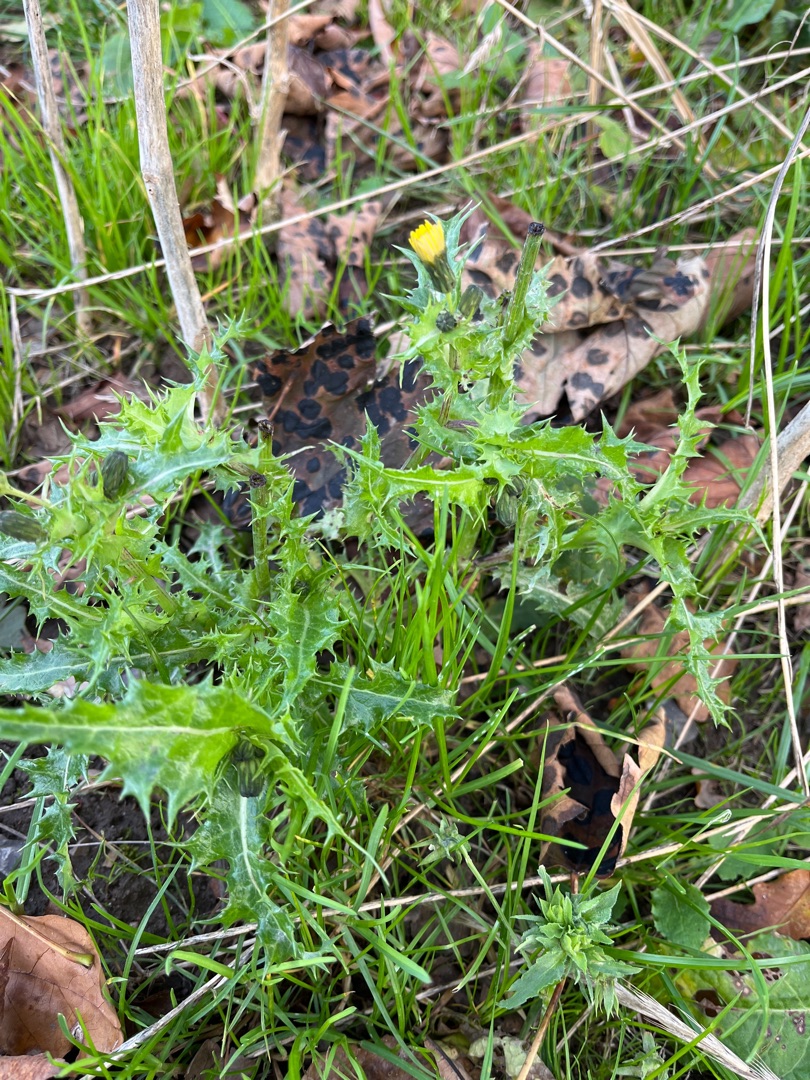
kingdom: Plantae
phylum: Tracheophyta
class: Magnoliopsida
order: Asterales
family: Asteraceae
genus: Sonchus
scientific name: Sonchus asper
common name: Ru svinemælk
